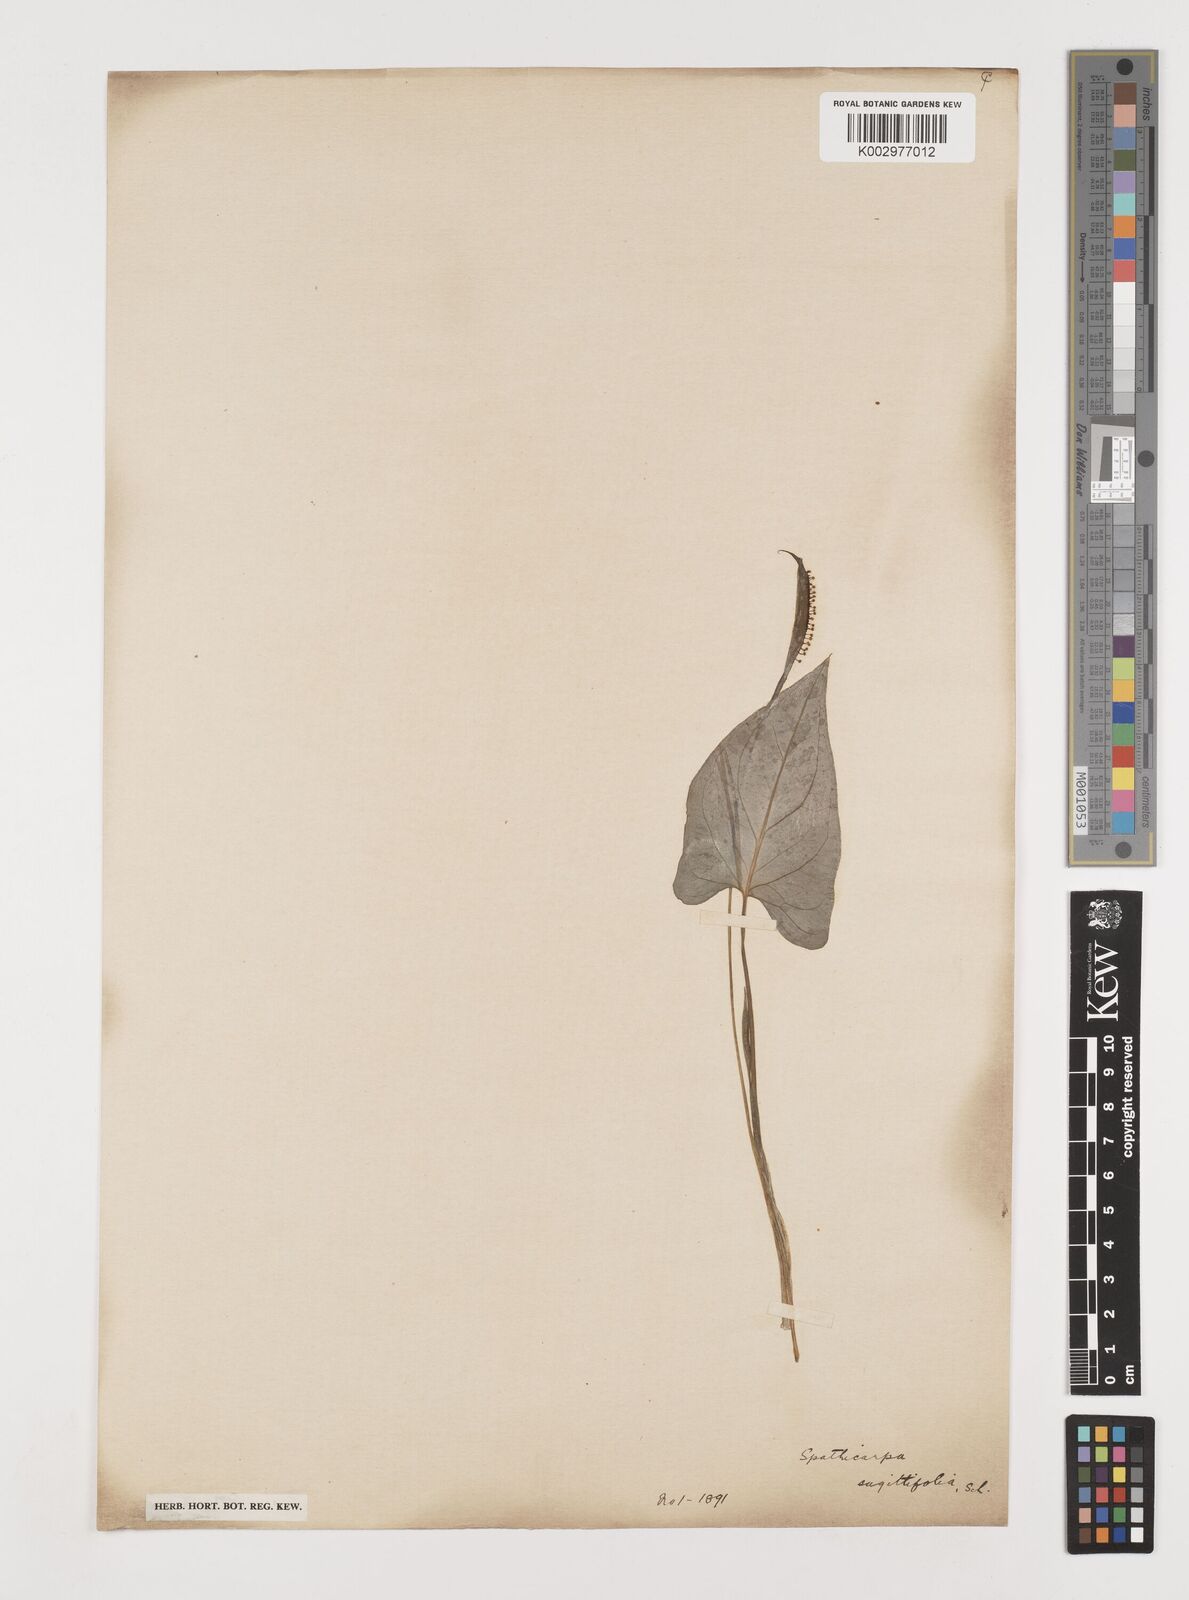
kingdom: Plantae
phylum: Tracheophyta
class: Liliopsida
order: Alismatales
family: Araceae
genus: Spathicarpa
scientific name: Spathicarpa hastifolia
